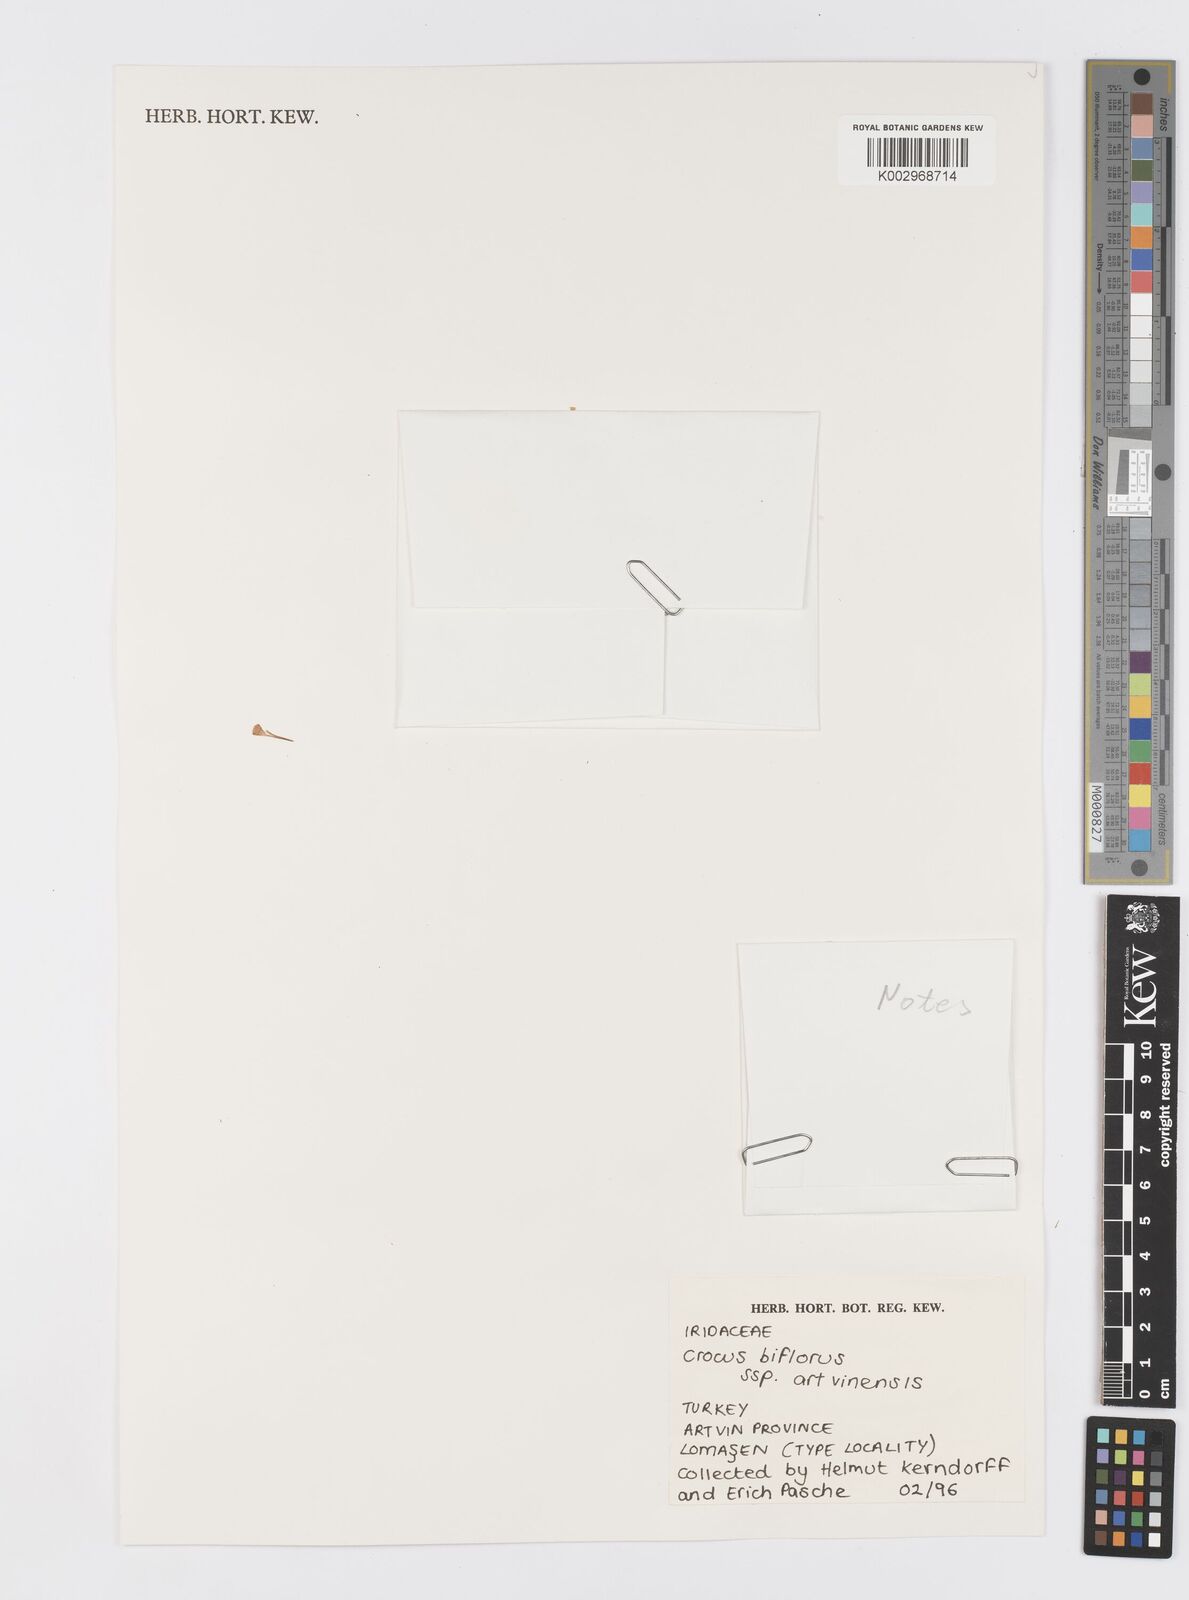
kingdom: Plantae
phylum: Tracheophyta
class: Liliopsida
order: Asparagales
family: Iridaceae
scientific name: Iridaceae
